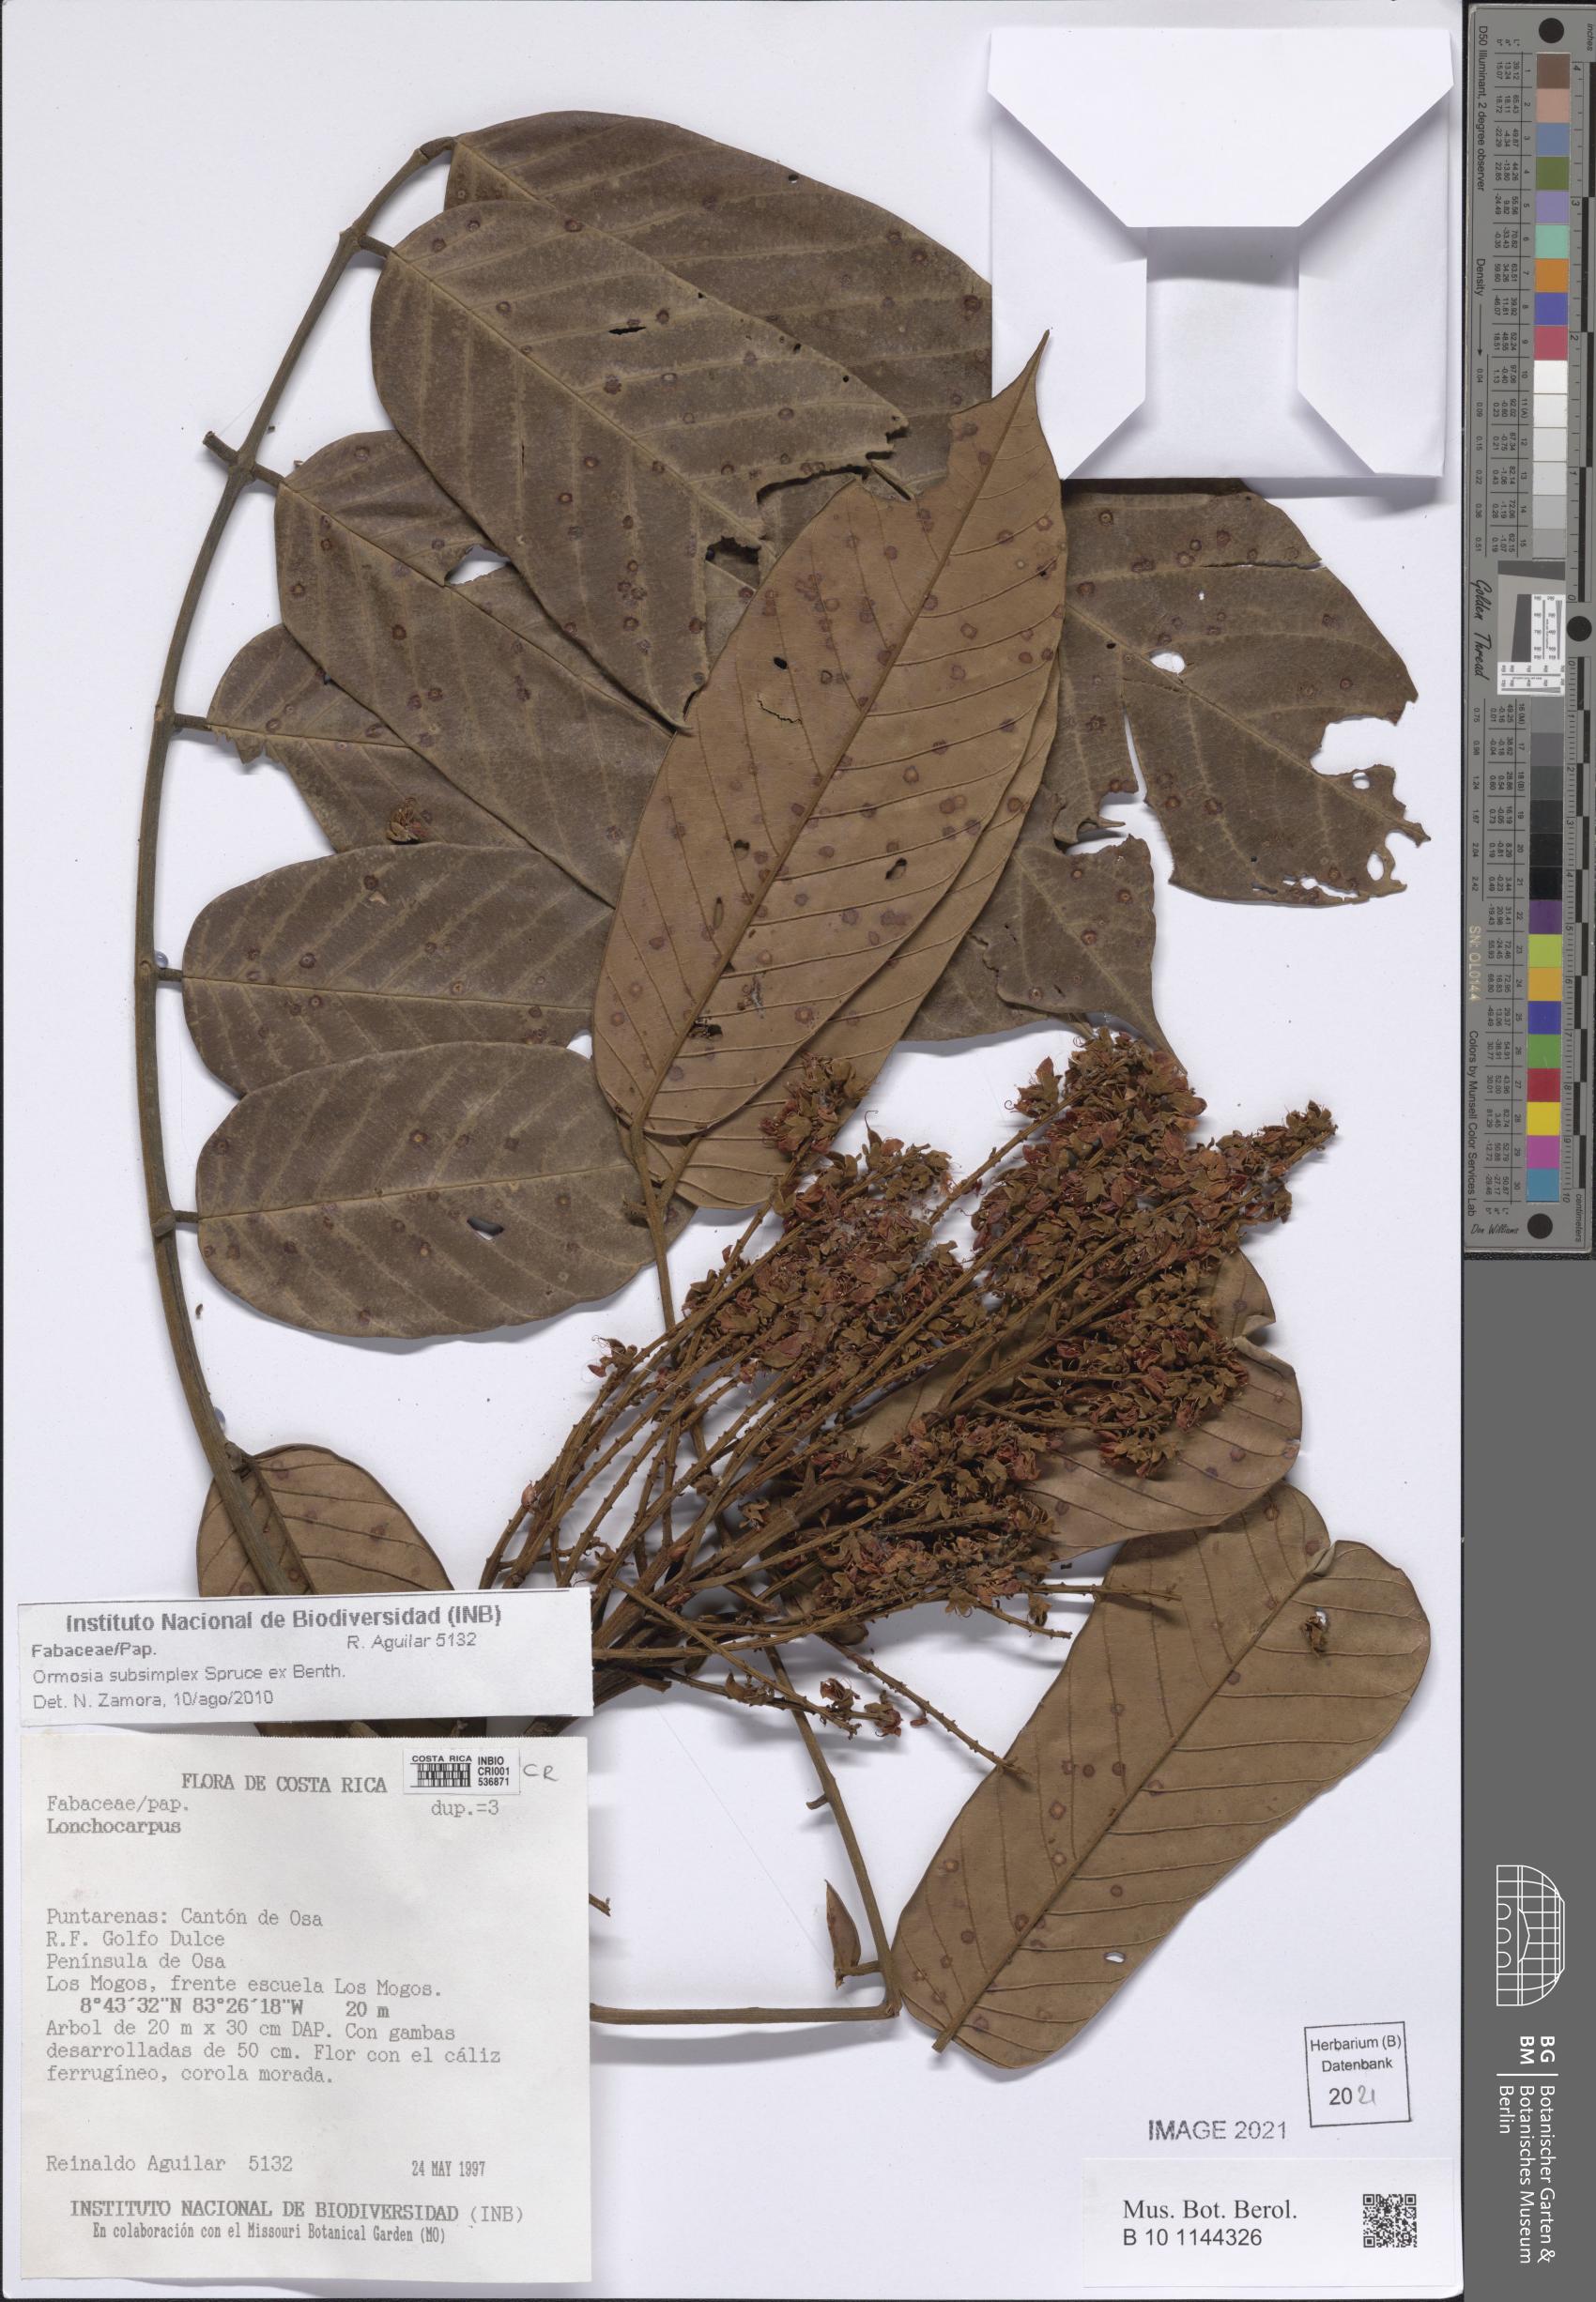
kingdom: Plantae
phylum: Tracheophyta
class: Magnoliopsida
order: Fabales
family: Fabaceae
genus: Ormosia
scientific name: Ormosia subsimplex
